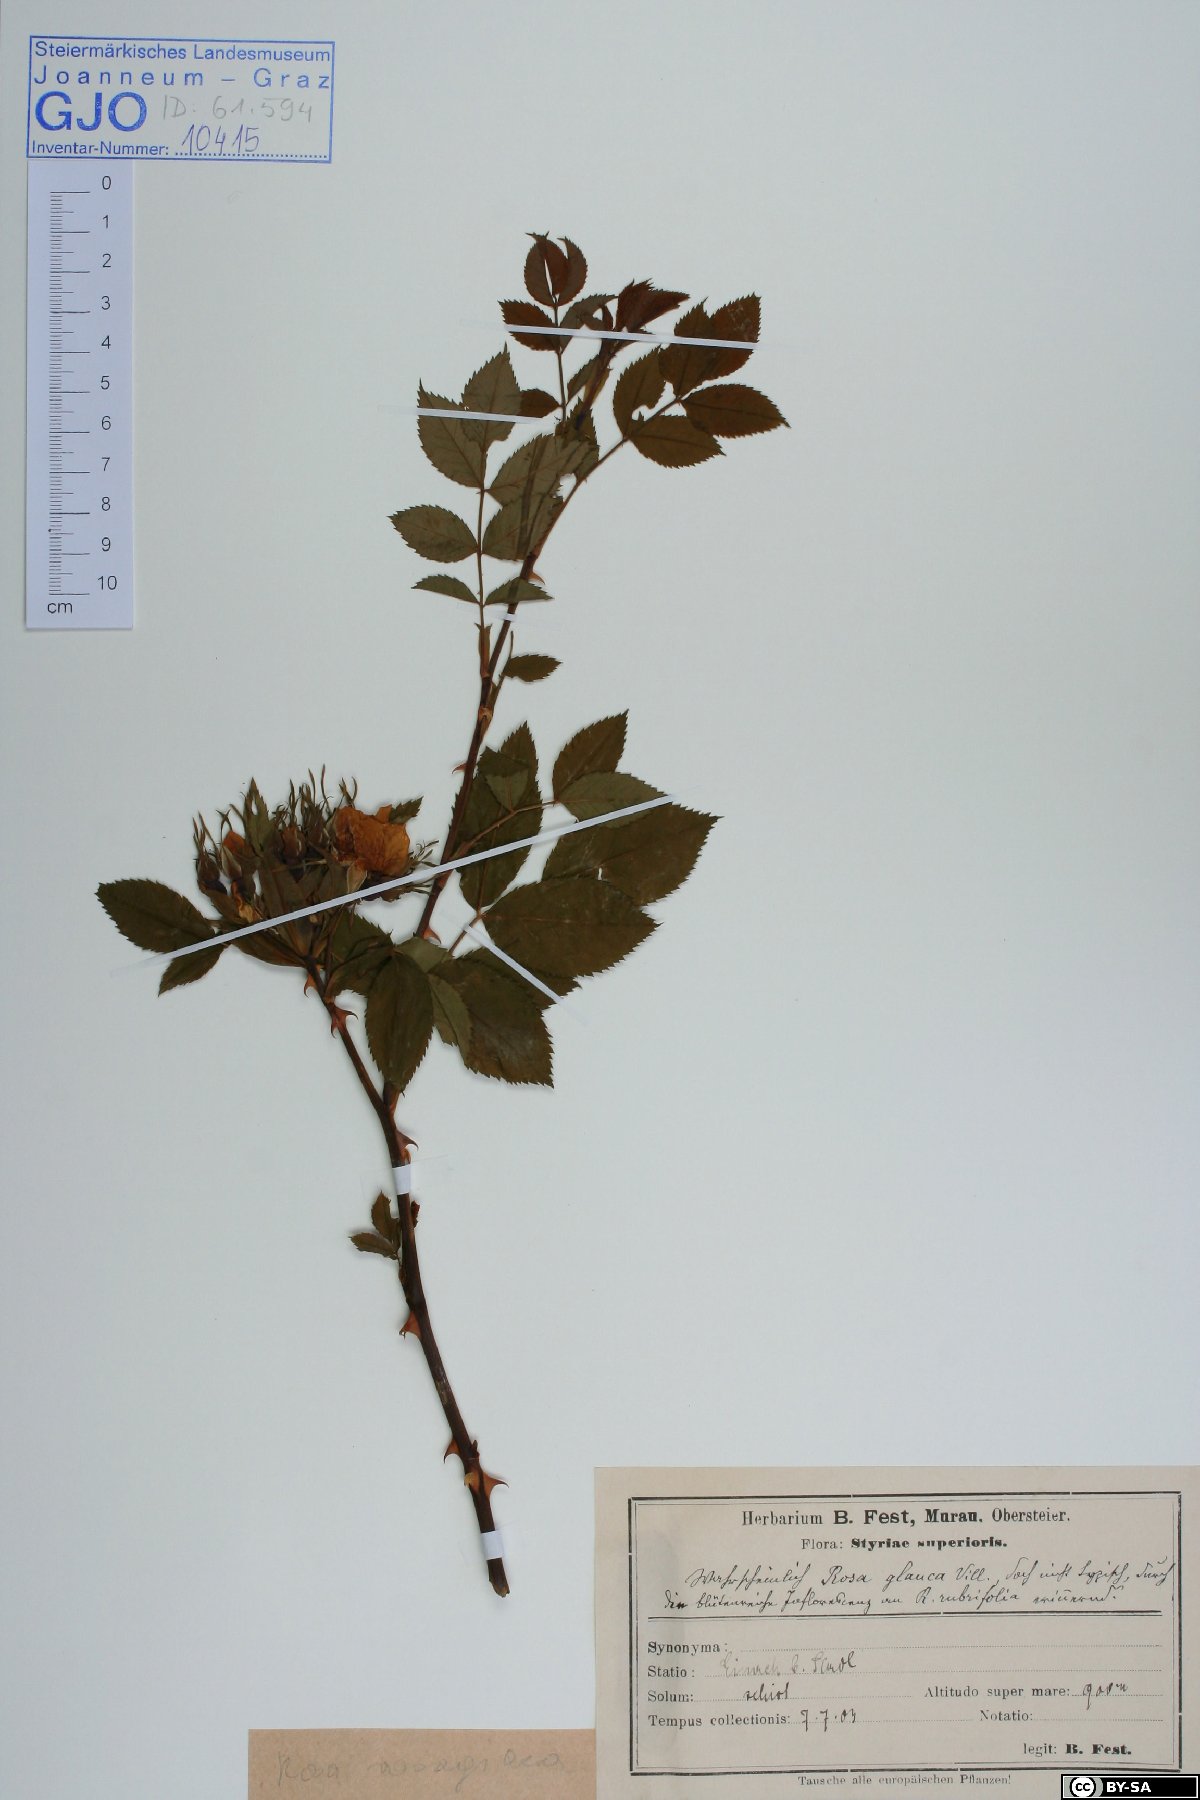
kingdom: Plantae
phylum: Tracheophyta
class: Magnoliopsida
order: Rosales
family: Rosaceae
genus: Rosa
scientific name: Rosa vosagiaca
